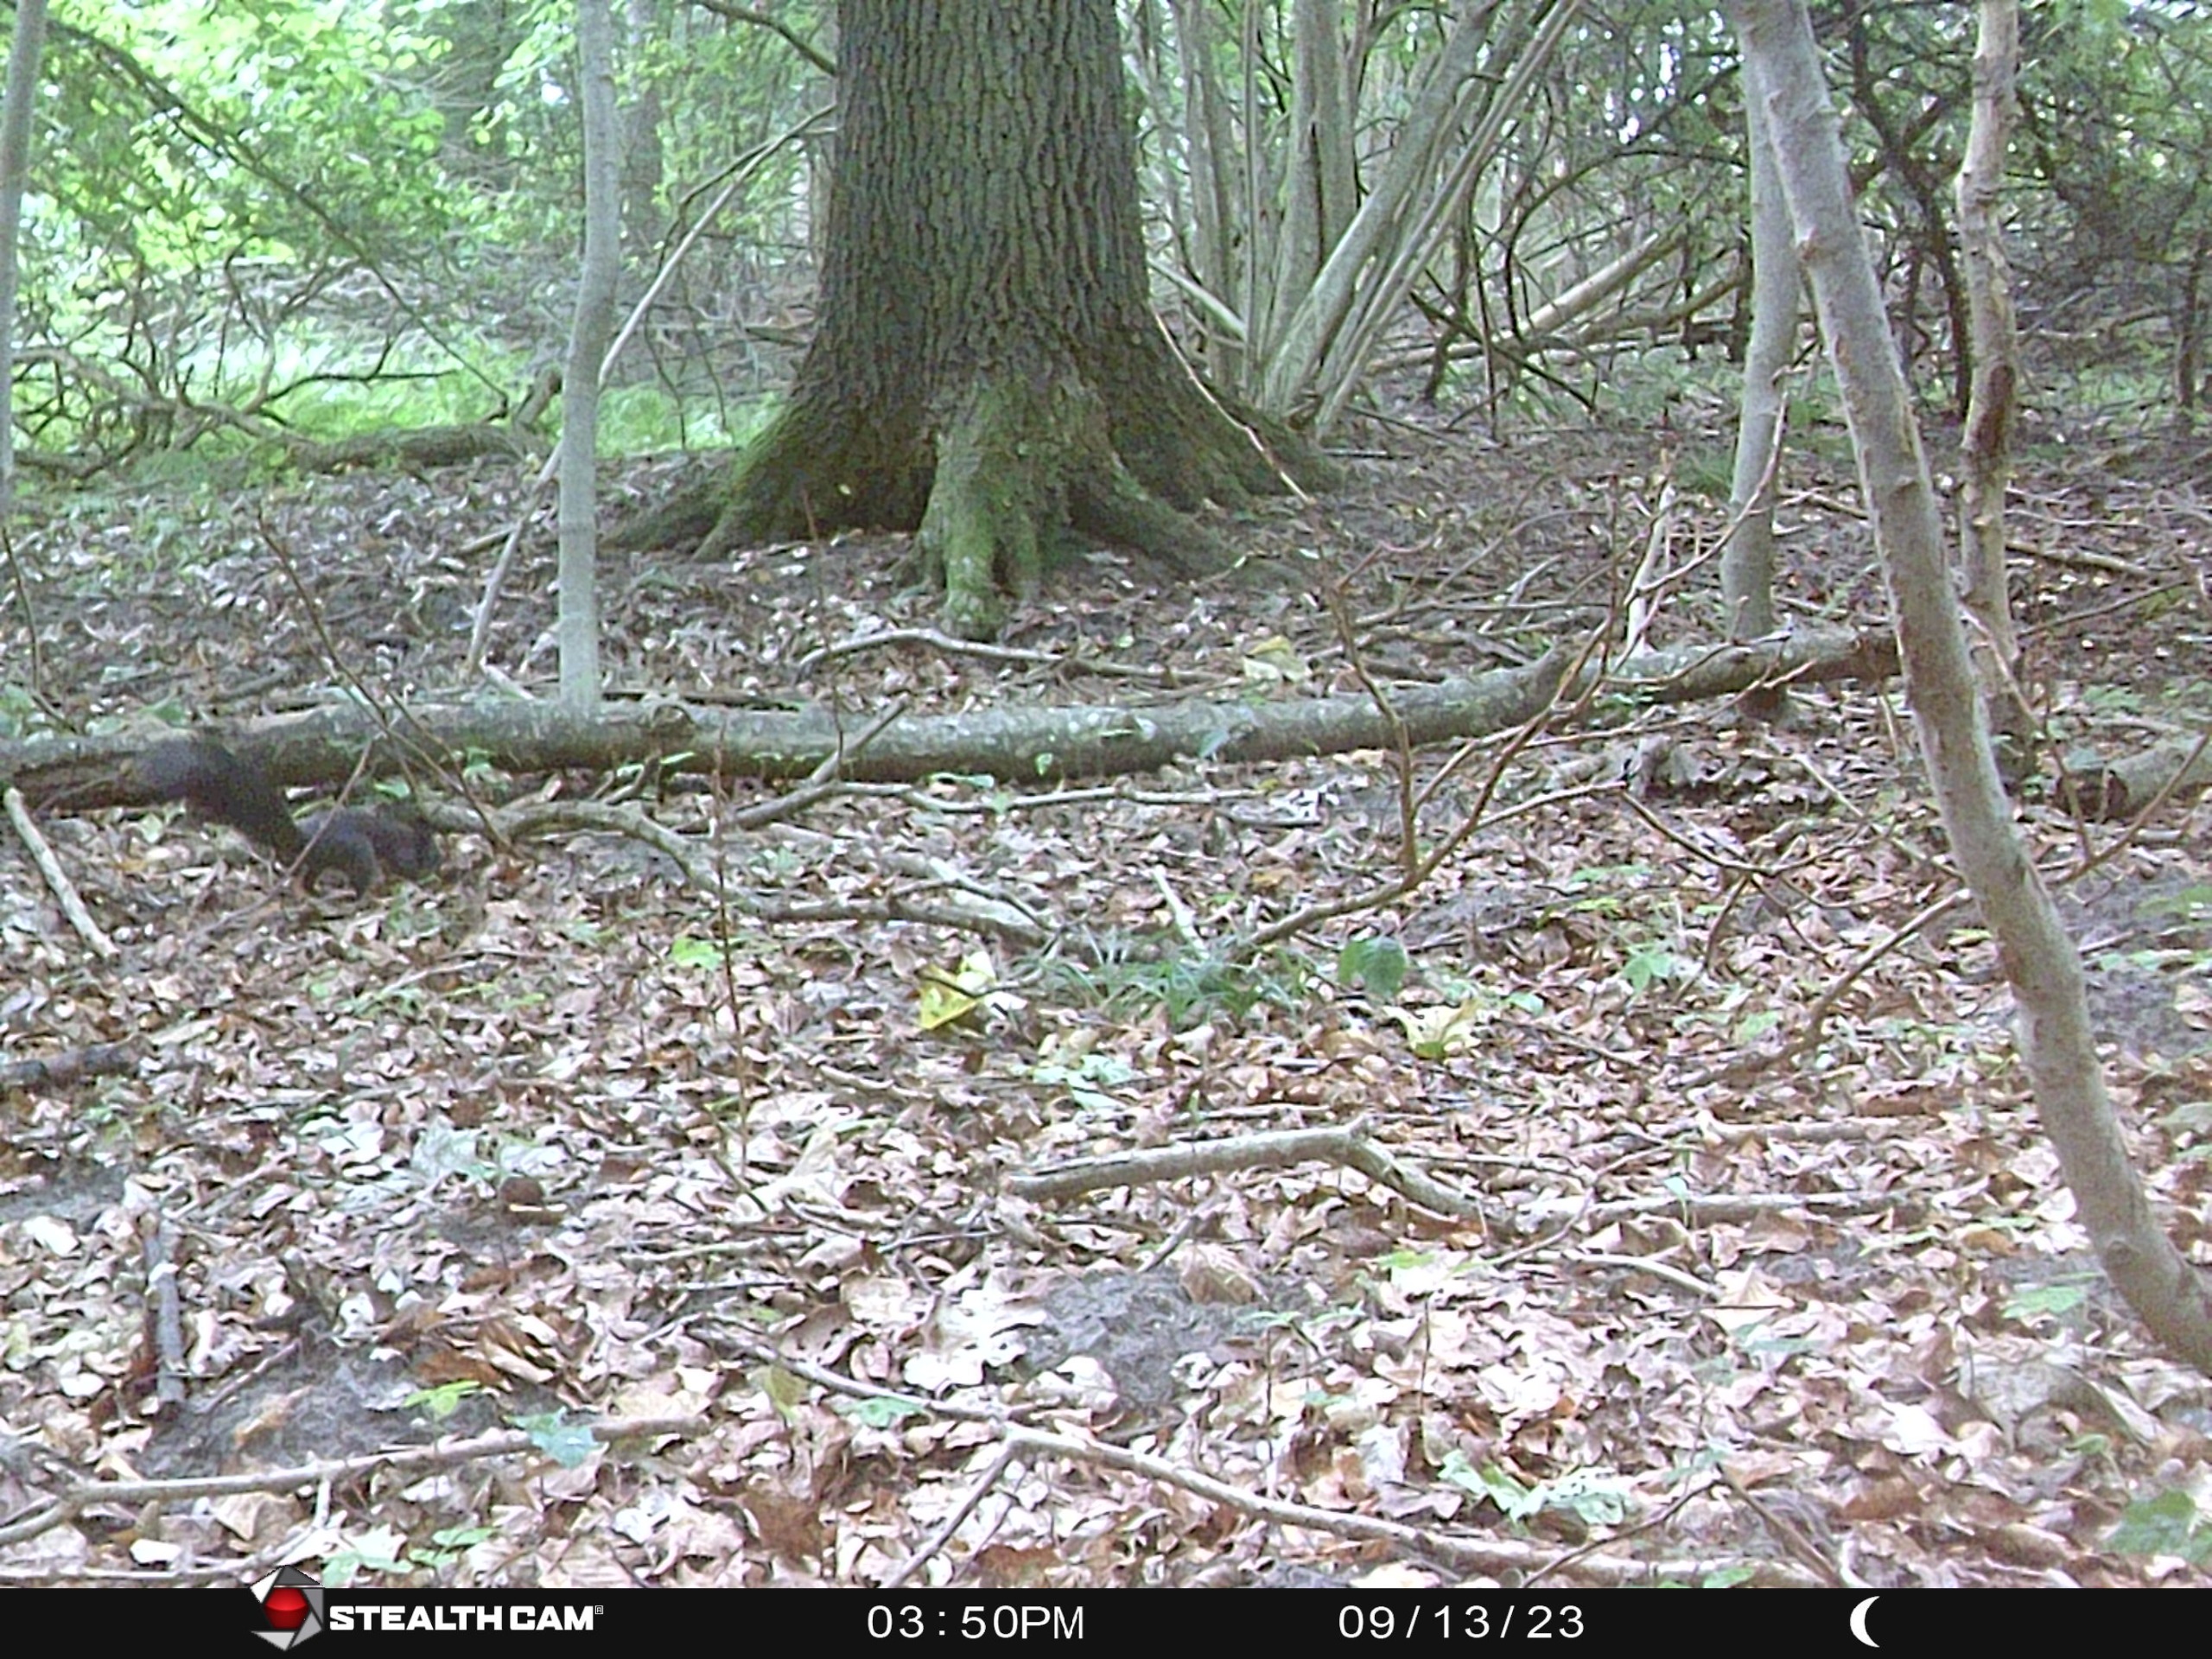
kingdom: Animalia
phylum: Chordata
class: Mammalia
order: Rodentia
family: Sciuridae
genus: Sciurus
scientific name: Sciurus vulgaris
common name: Egern
